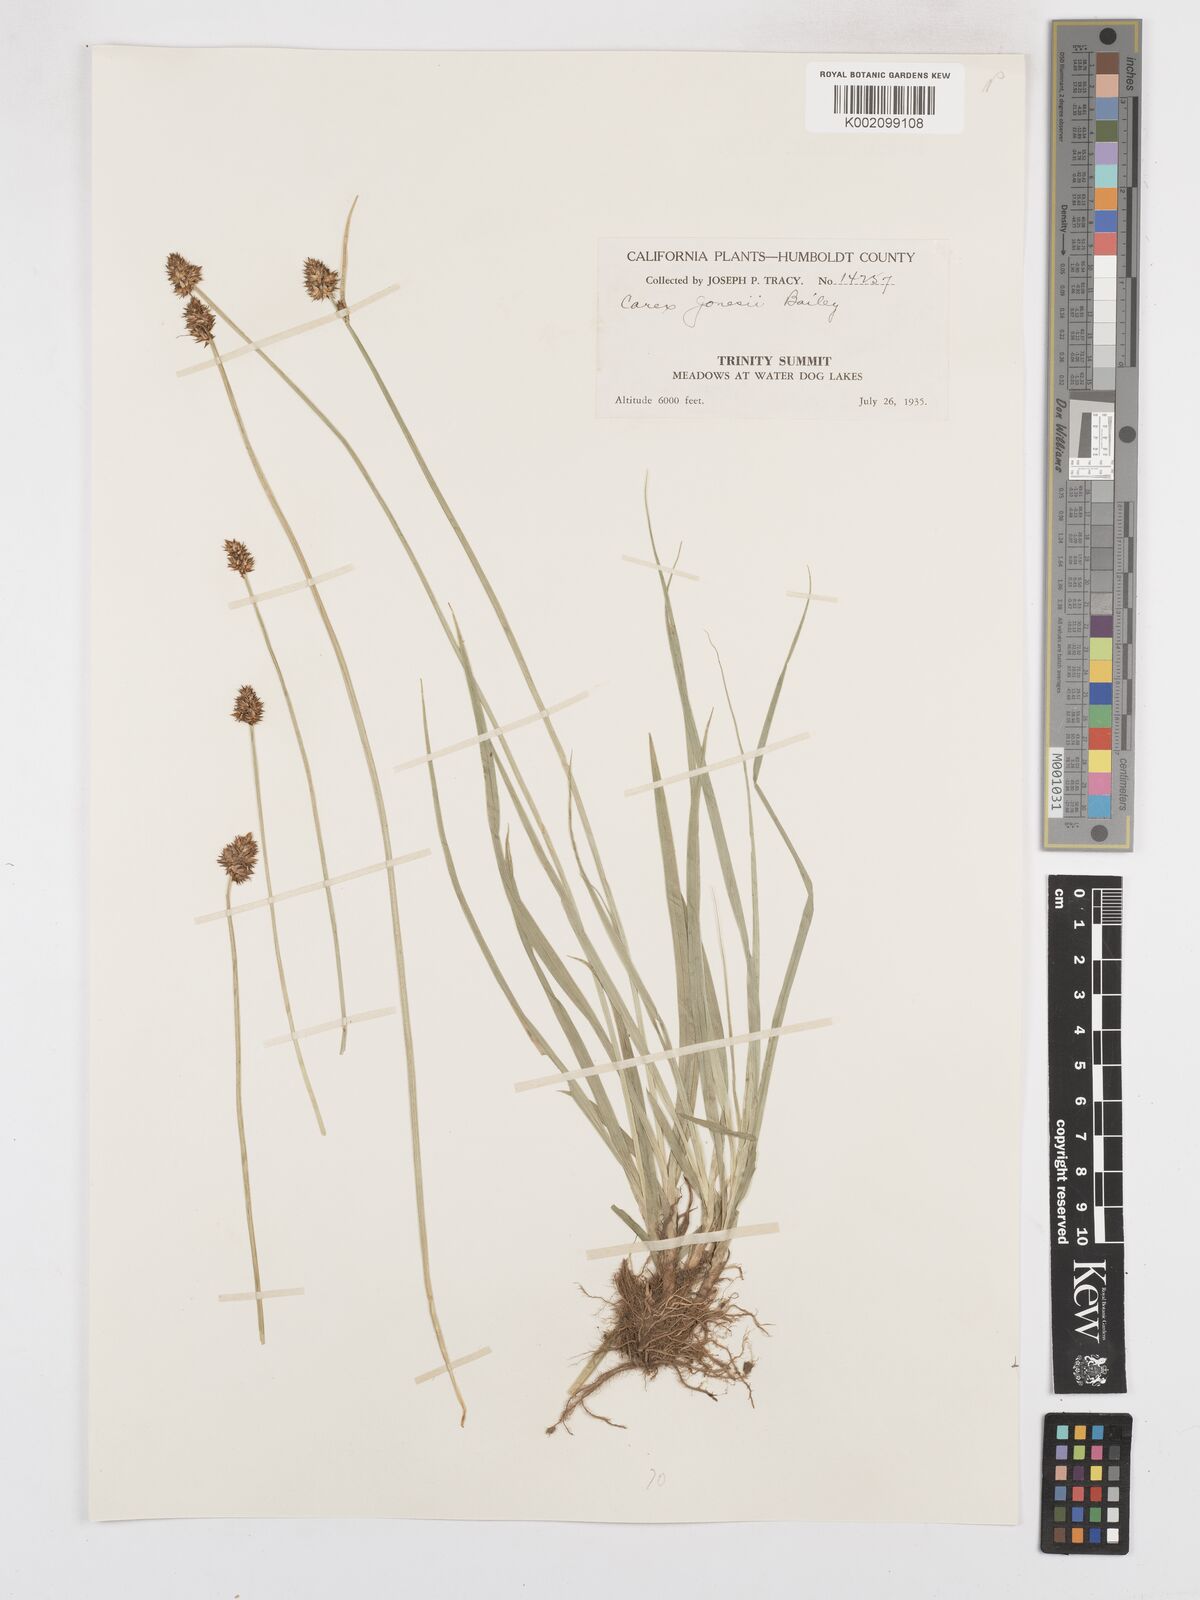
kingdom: Plantae
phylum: Tracheophyta
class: Liliopsida
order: Poales
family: Cyperaceae
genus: Carex
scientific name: Carex jonesii
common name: Jones' sedge
